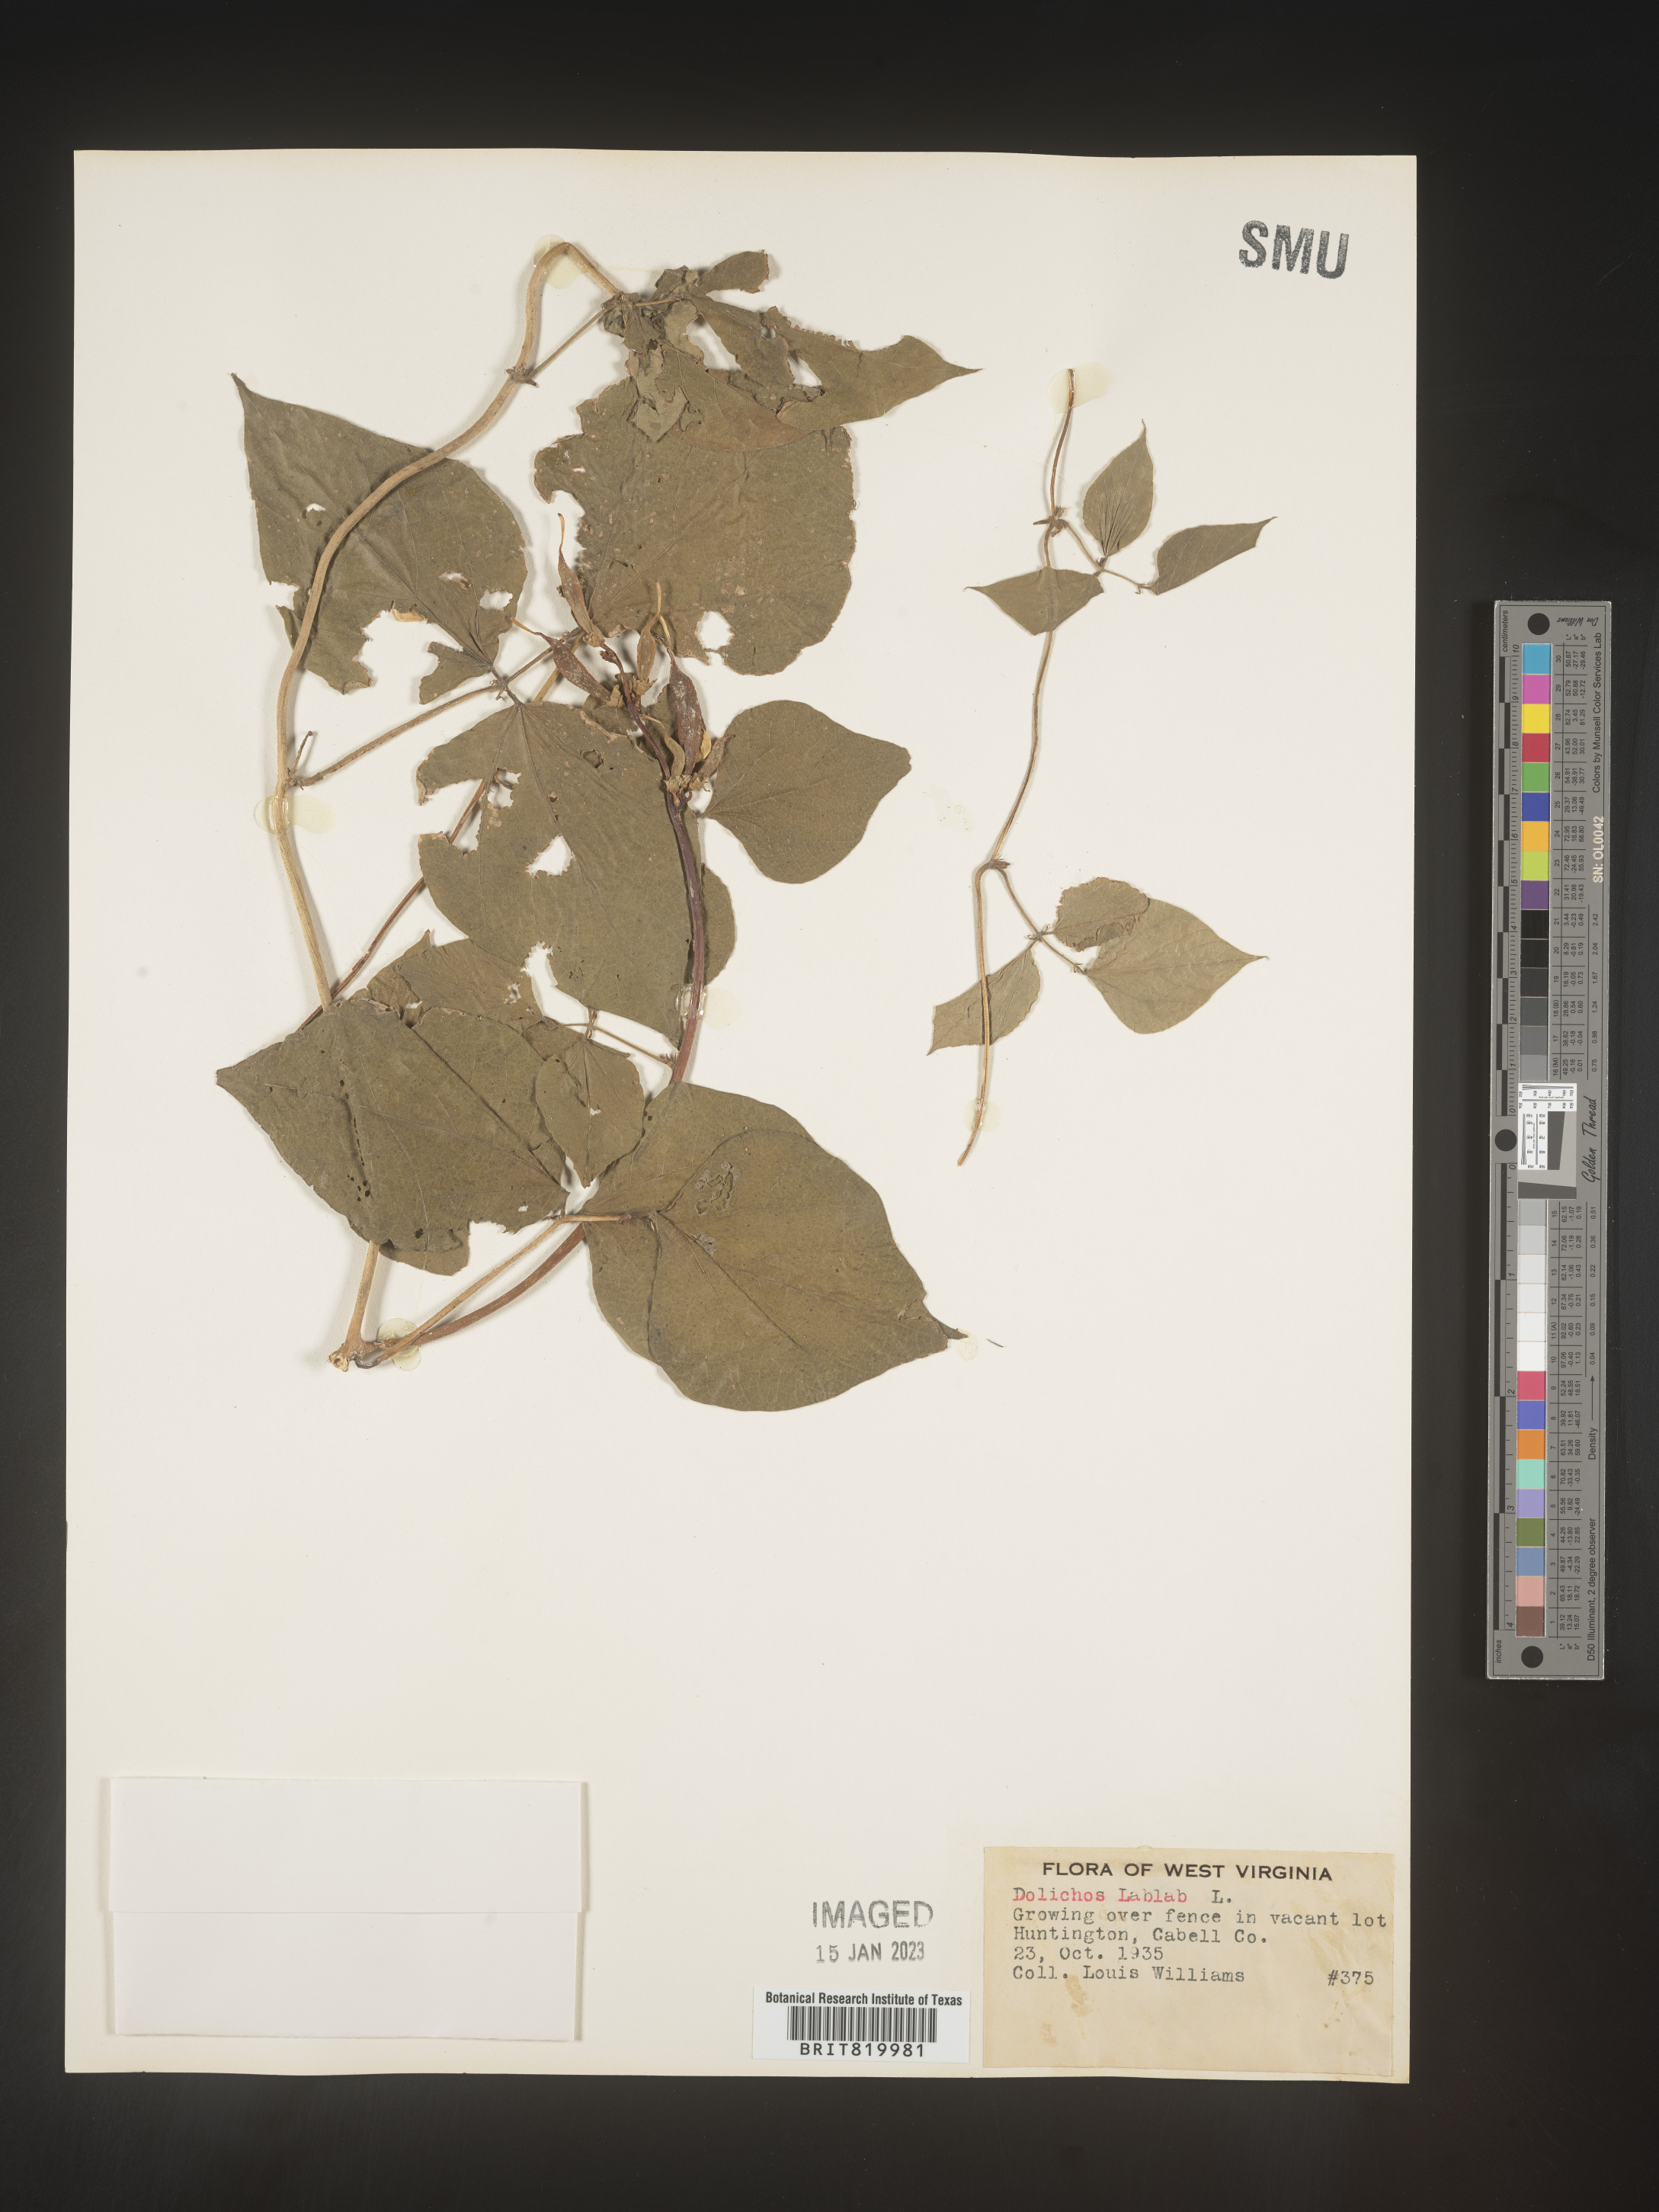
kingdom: Plantae
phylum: Tracheophyta
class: Magnoliopsida
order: Fabales
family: Fabaceae
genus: Dolichos
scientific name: Dolichos
